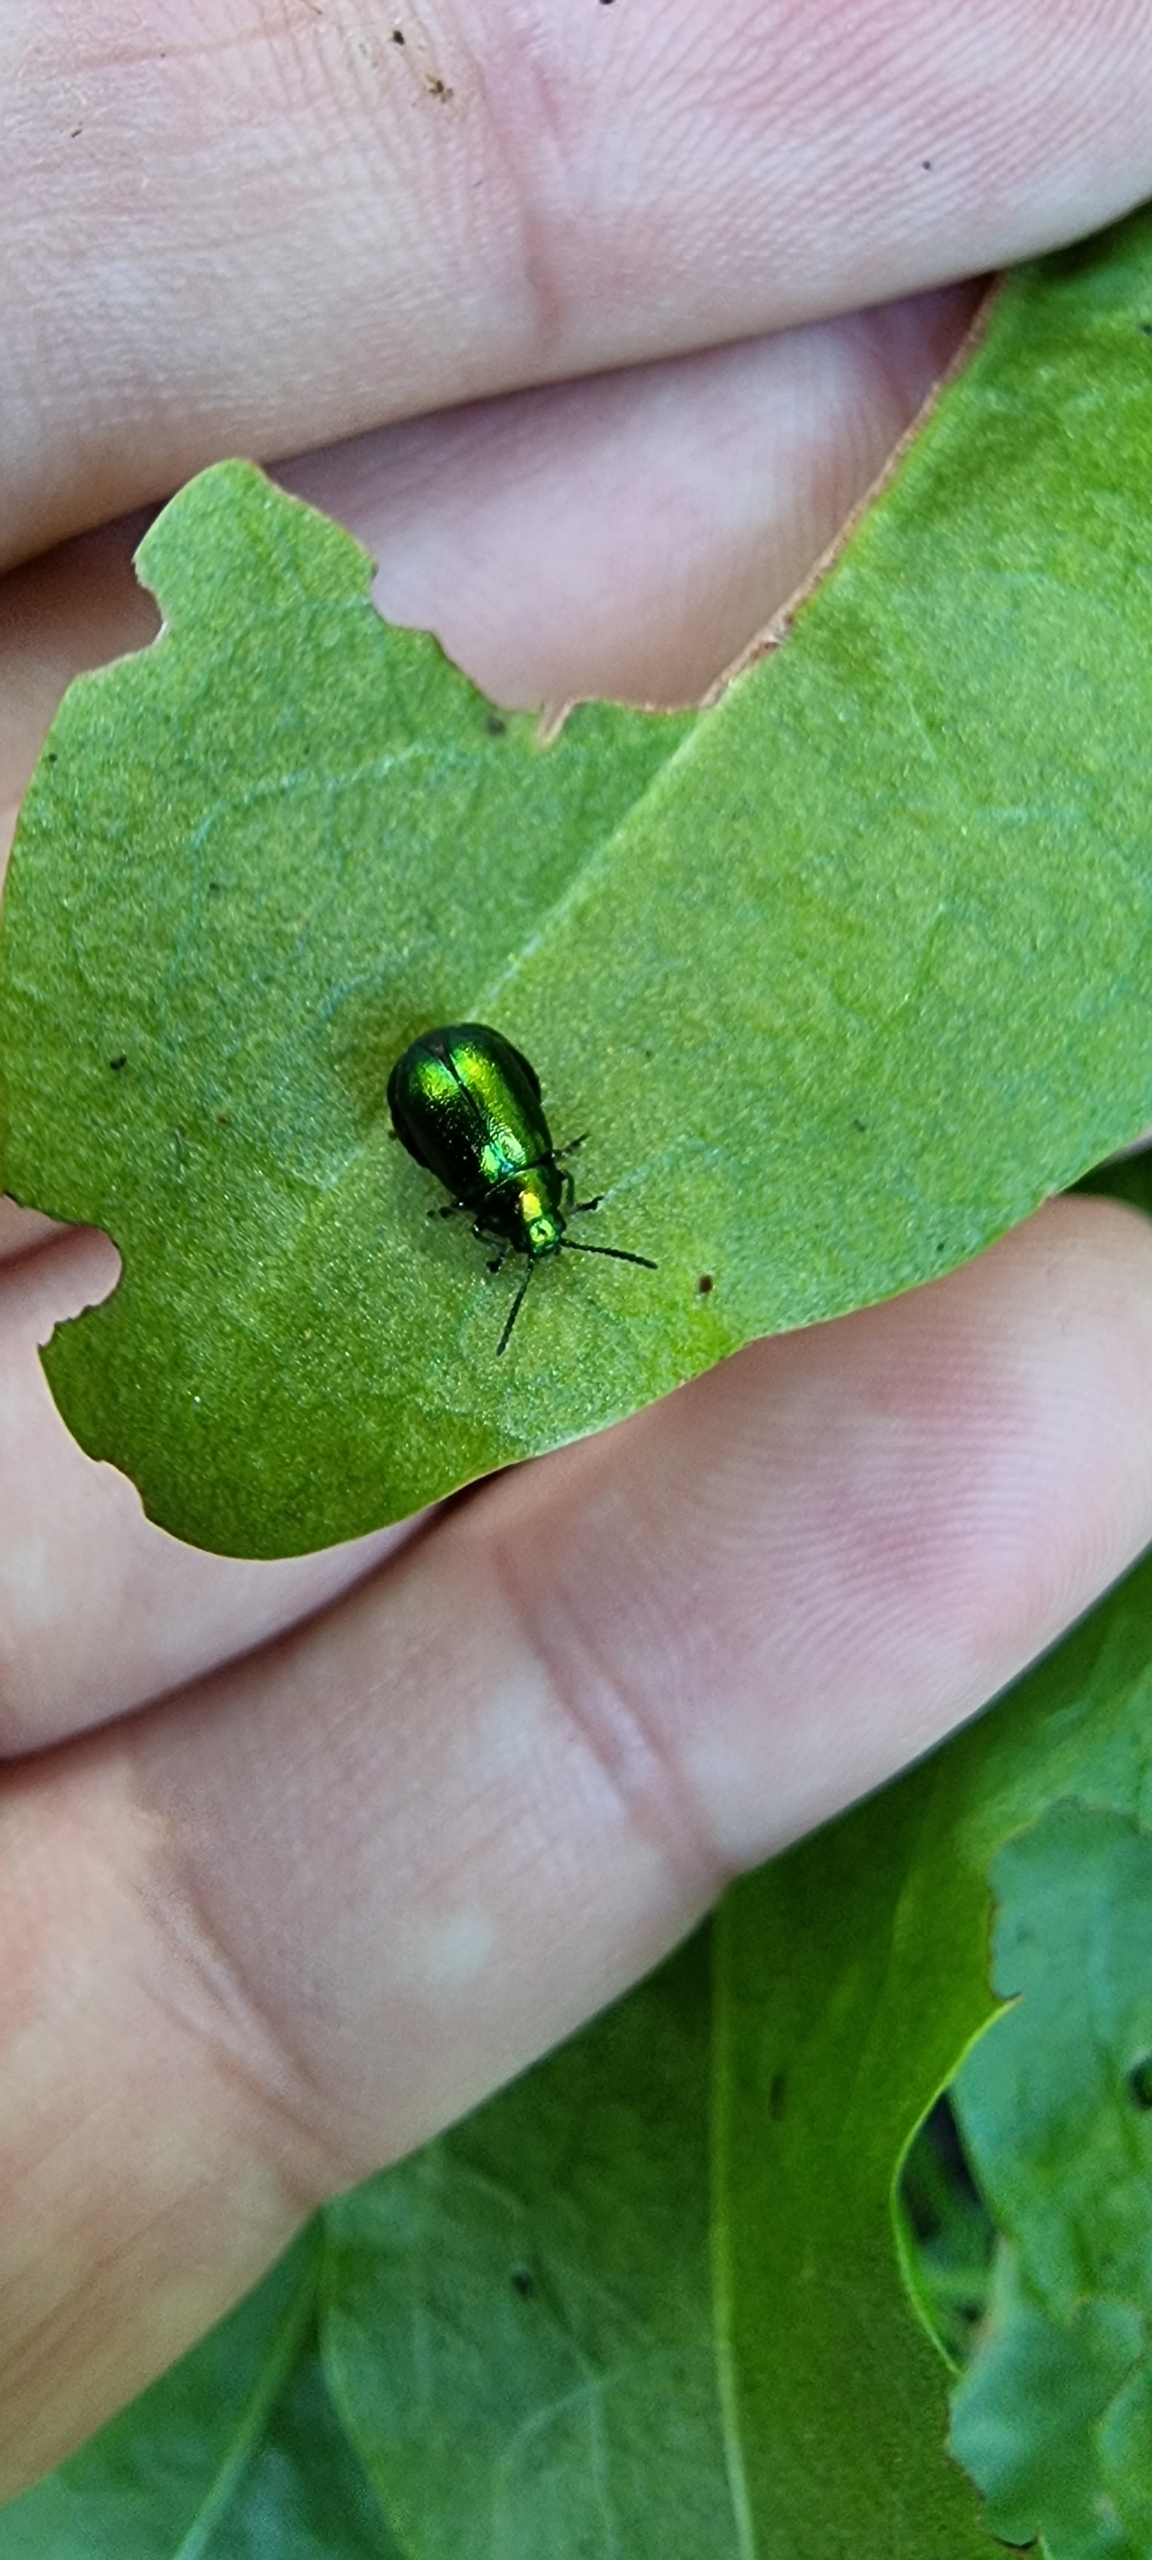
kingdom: Animalia
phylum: Arthropoda
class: Insecta
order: Coleoptera
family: Chrysomelidae
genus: Gastrophysa
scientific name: Gastrophysa viridula
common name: Skræppebladbille
